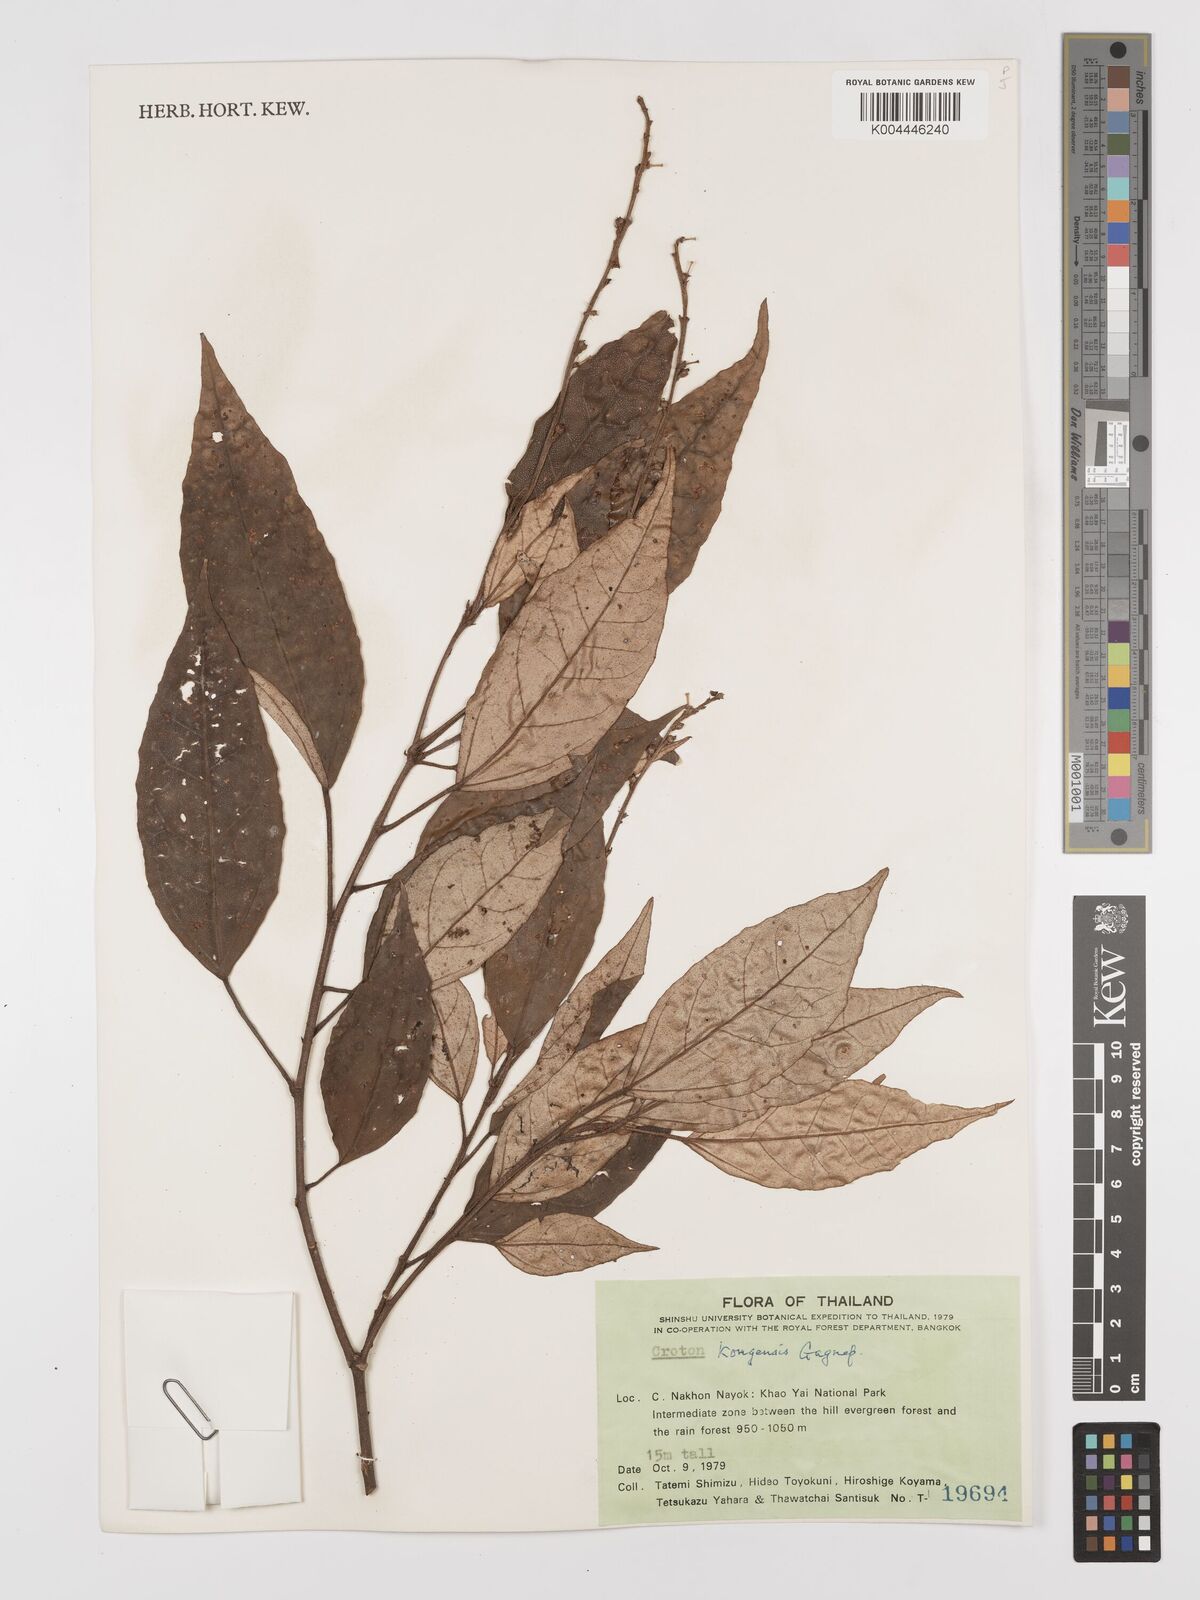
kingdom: Plantae
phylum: Tracheophyta
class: Magnoliopsida
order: Malpighiales
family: Euphorbiaceae
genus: Croton
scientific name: Croton kongensis
